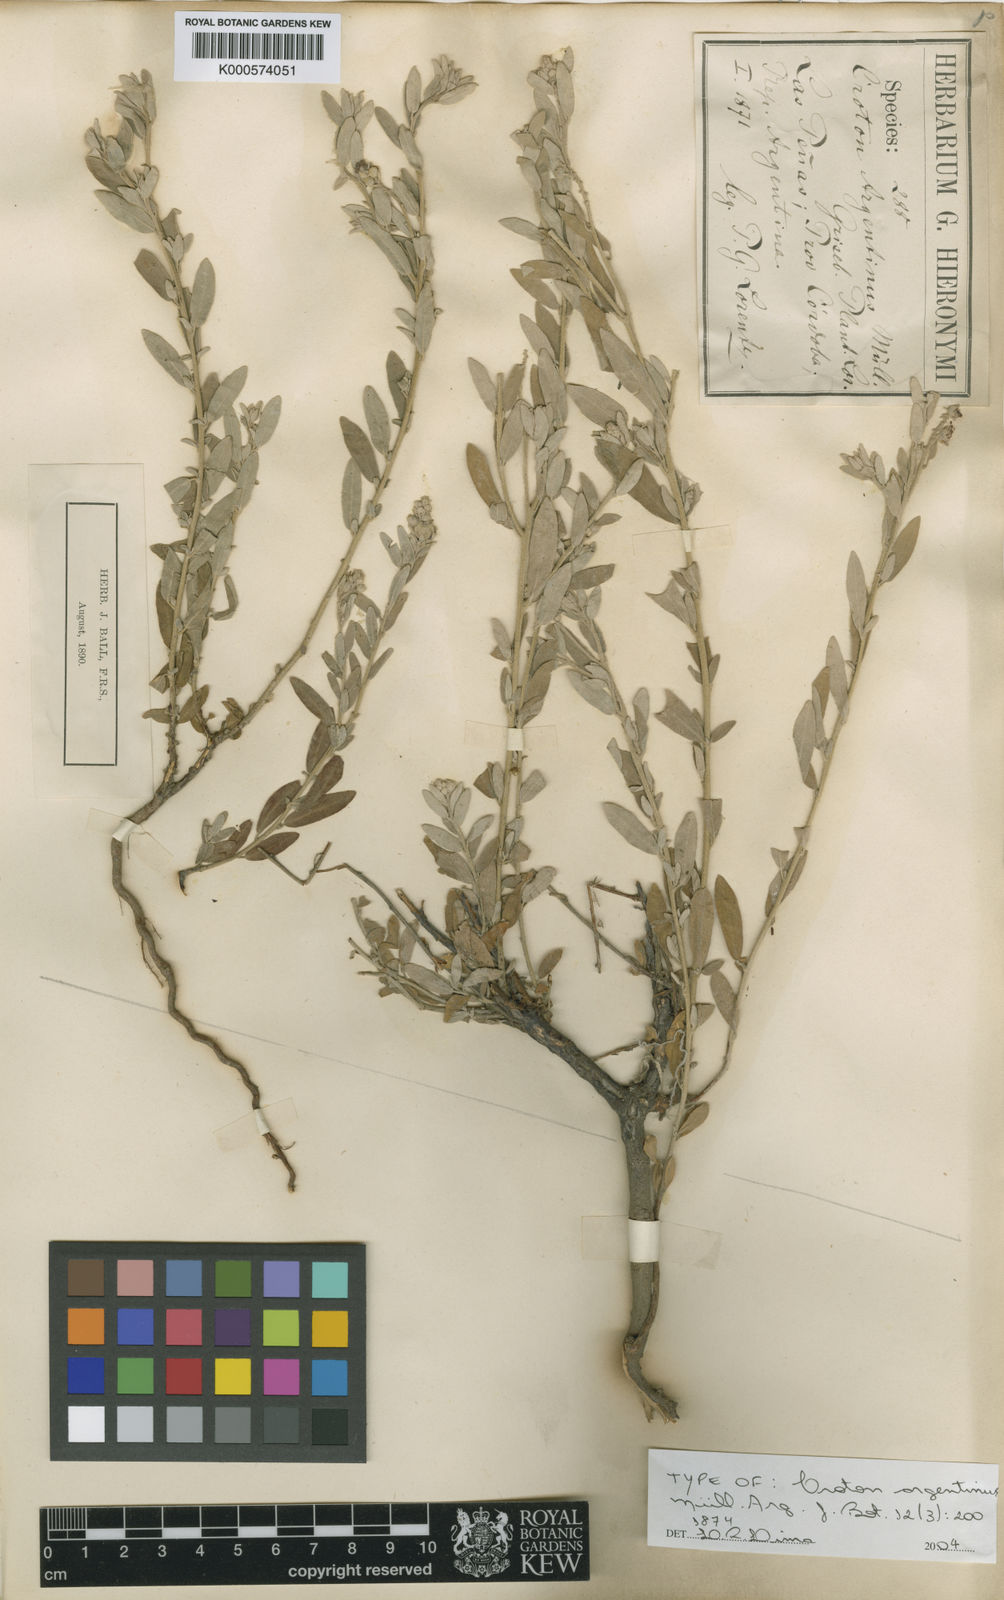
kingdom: Plantae
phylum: Tracheophyta
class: Magnoliopsida
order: Malpighiales
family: Euphorbiaceae
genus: Croton
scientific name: Croton
